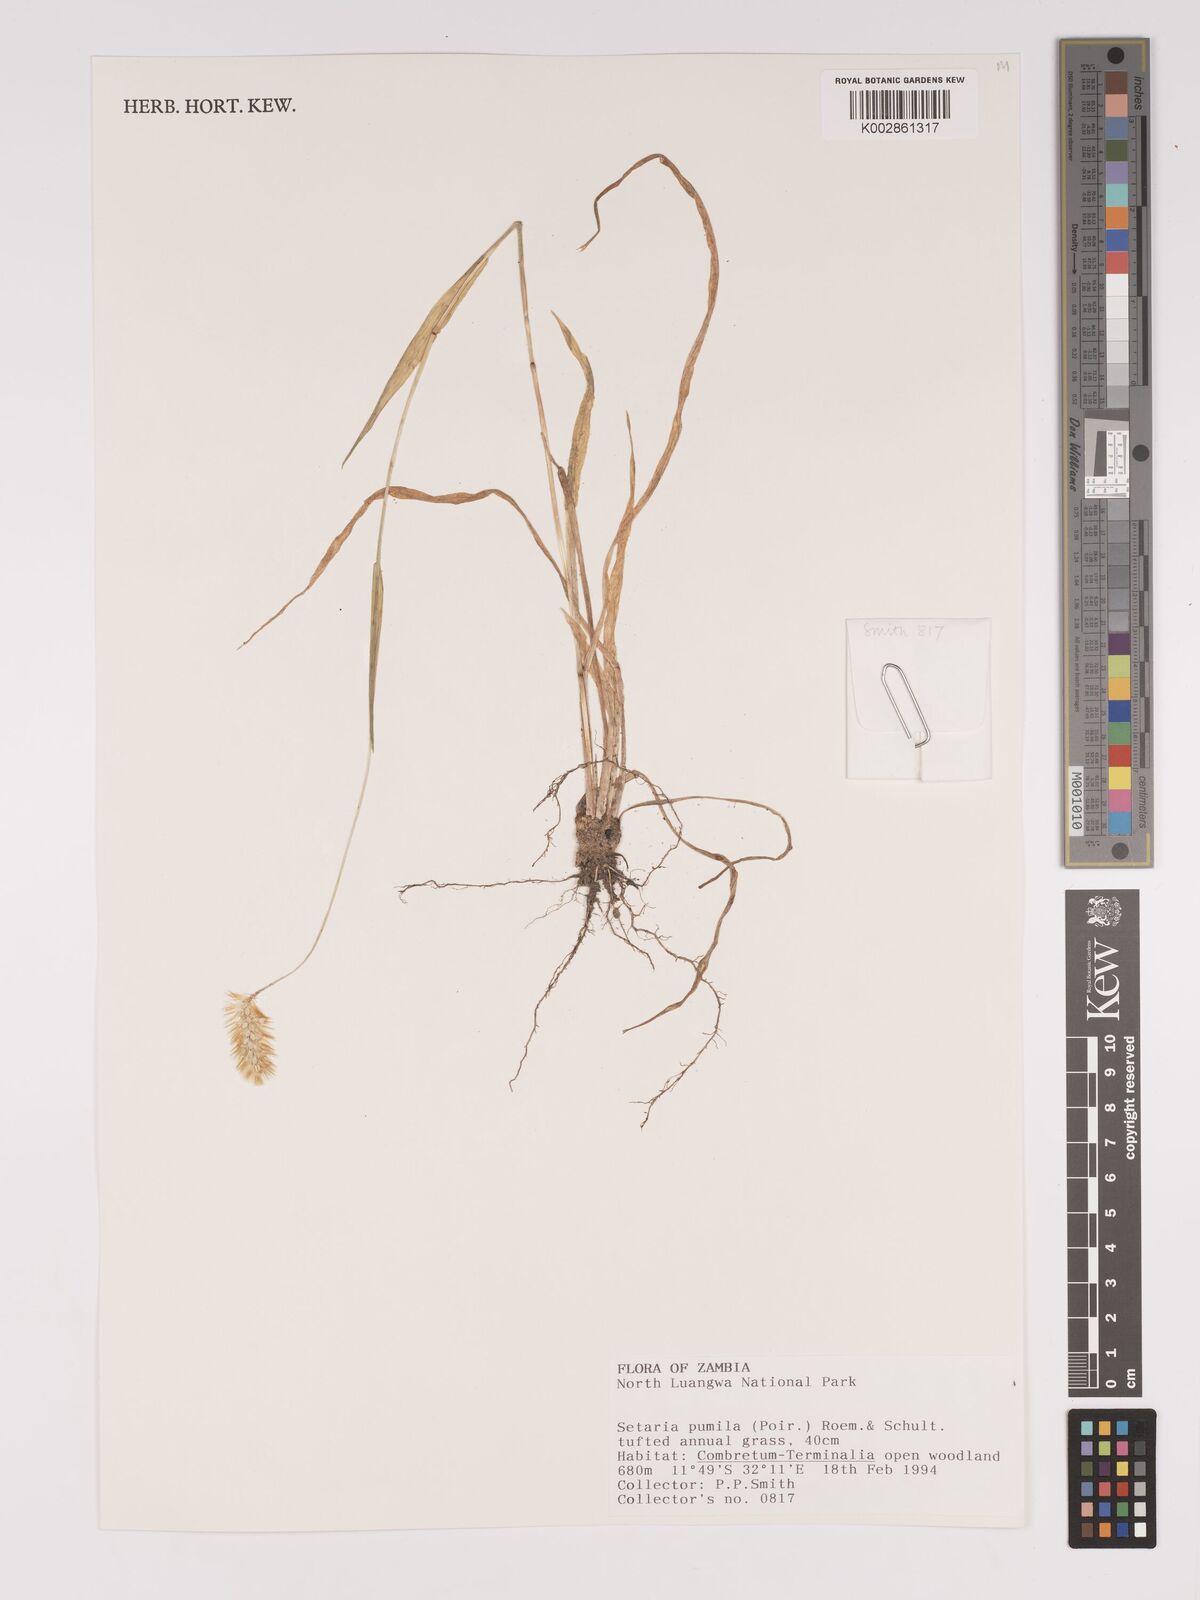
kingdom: Plantae
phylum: Tracheophyta
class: Liliopsida
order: Poales
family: Poaceae
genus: Setaria
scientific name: Setaria pumila
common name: Yellow bristle-grass
